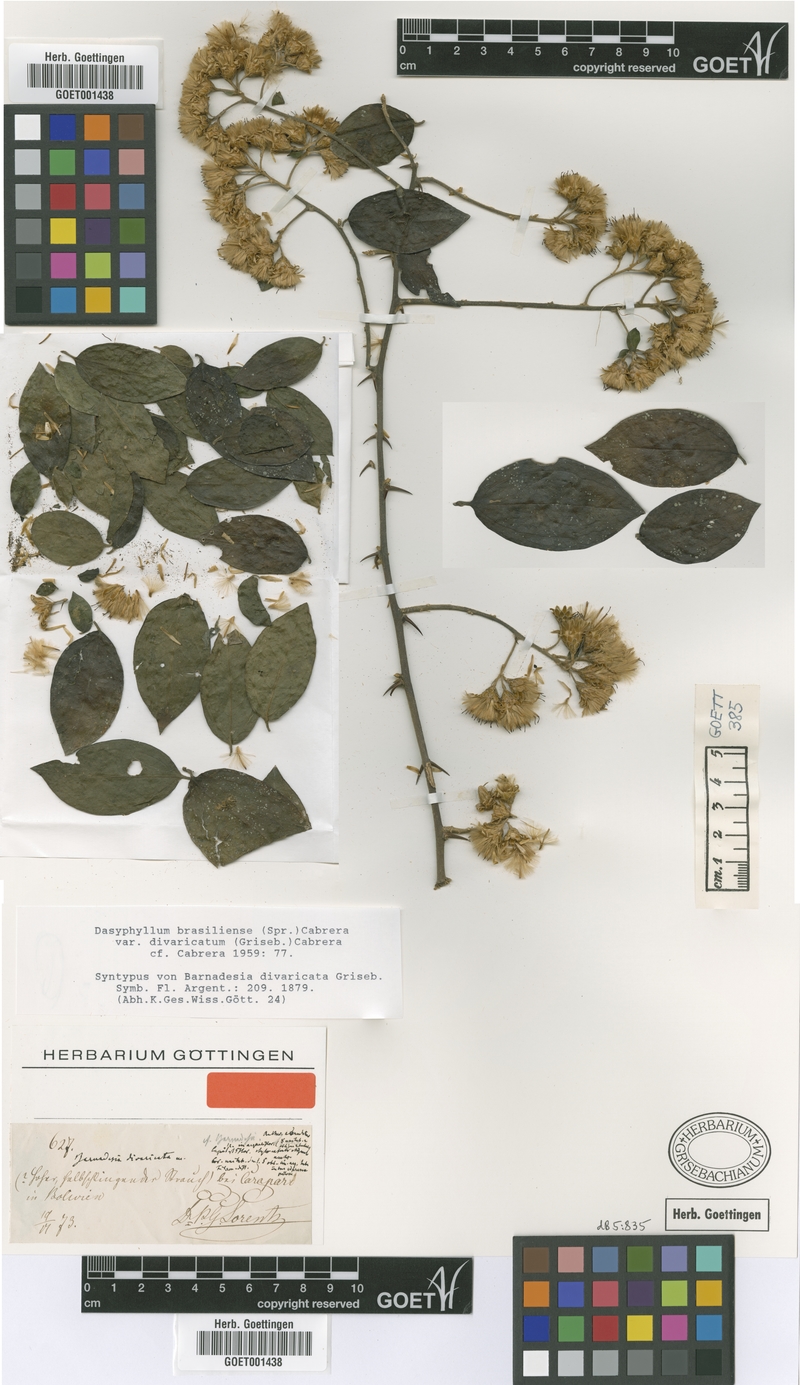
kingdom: Plantae
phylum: Tracheophyta
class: Magnoliopsida
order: Asterales
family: Asteraceae
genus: Dasyphyllum
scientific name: Dasyphyllum brasiliense
